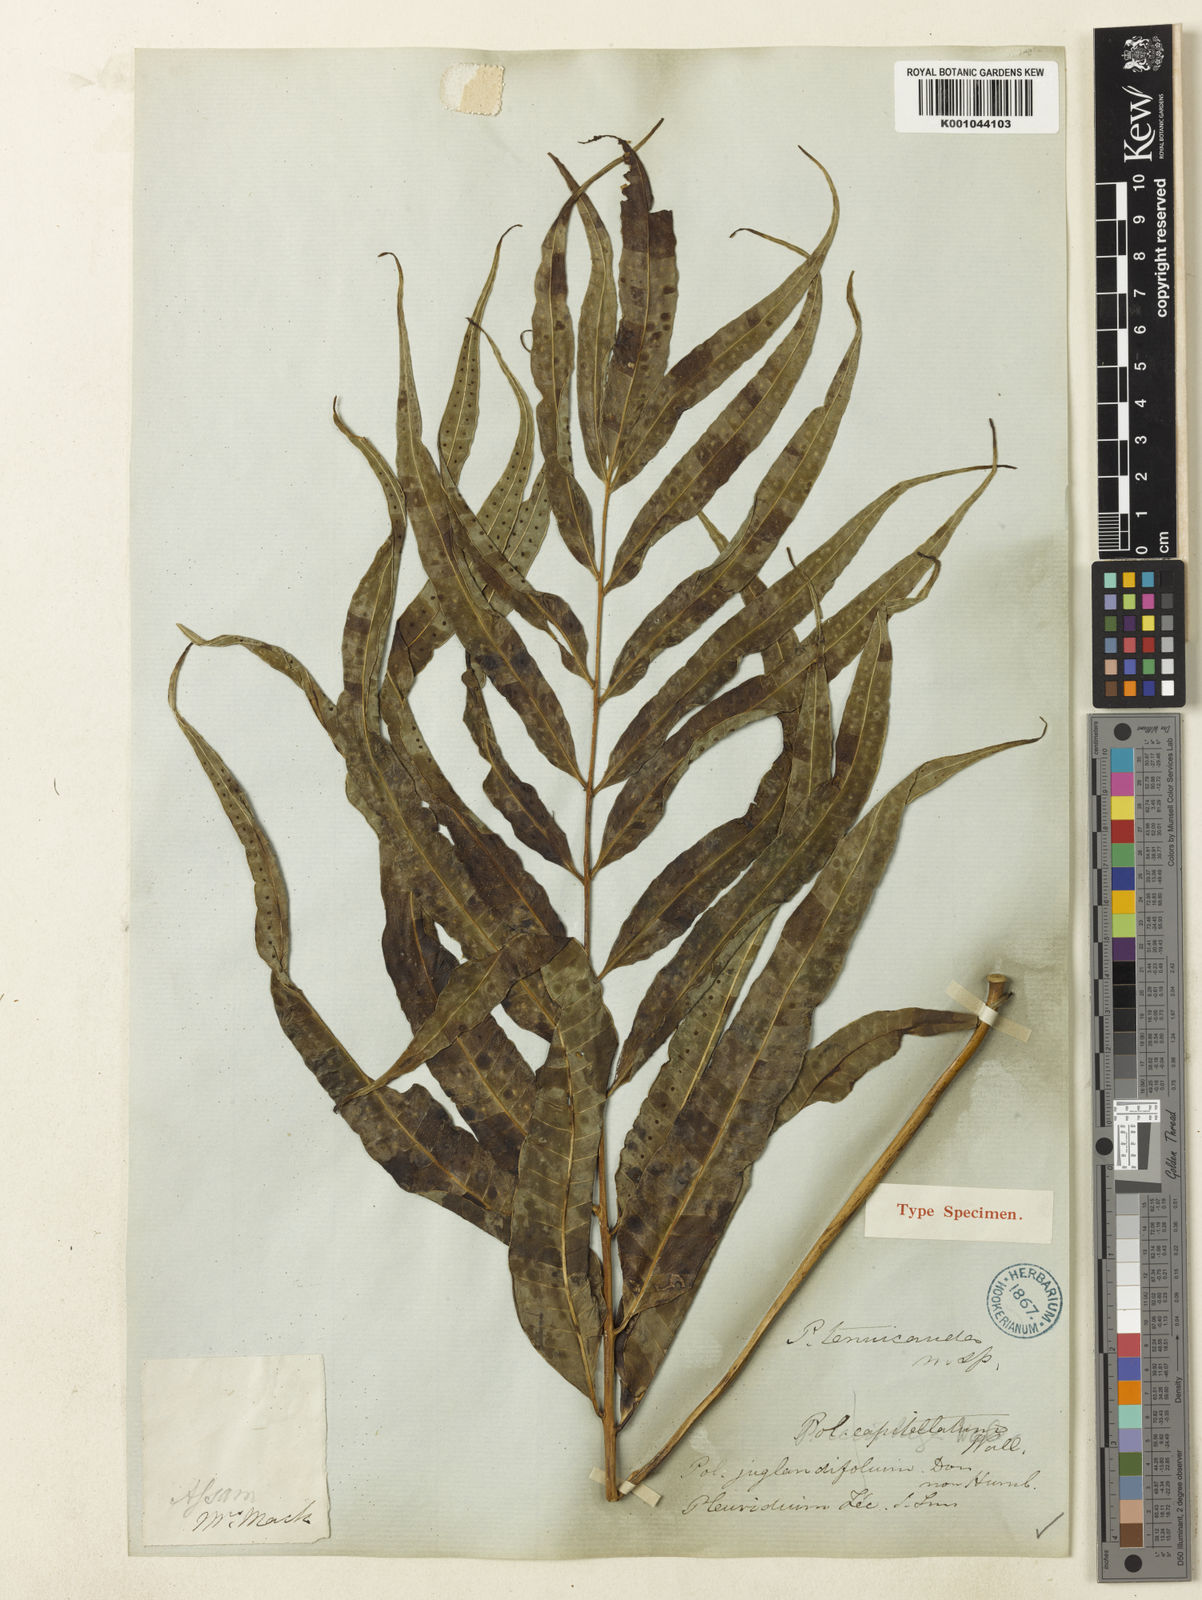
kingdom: Plantae
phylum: Tracheophyta
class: Polypodiopsida
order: Polypodiales
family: Polypodiaceae
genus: Selliguea
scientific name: Selliguea tenuicauda
